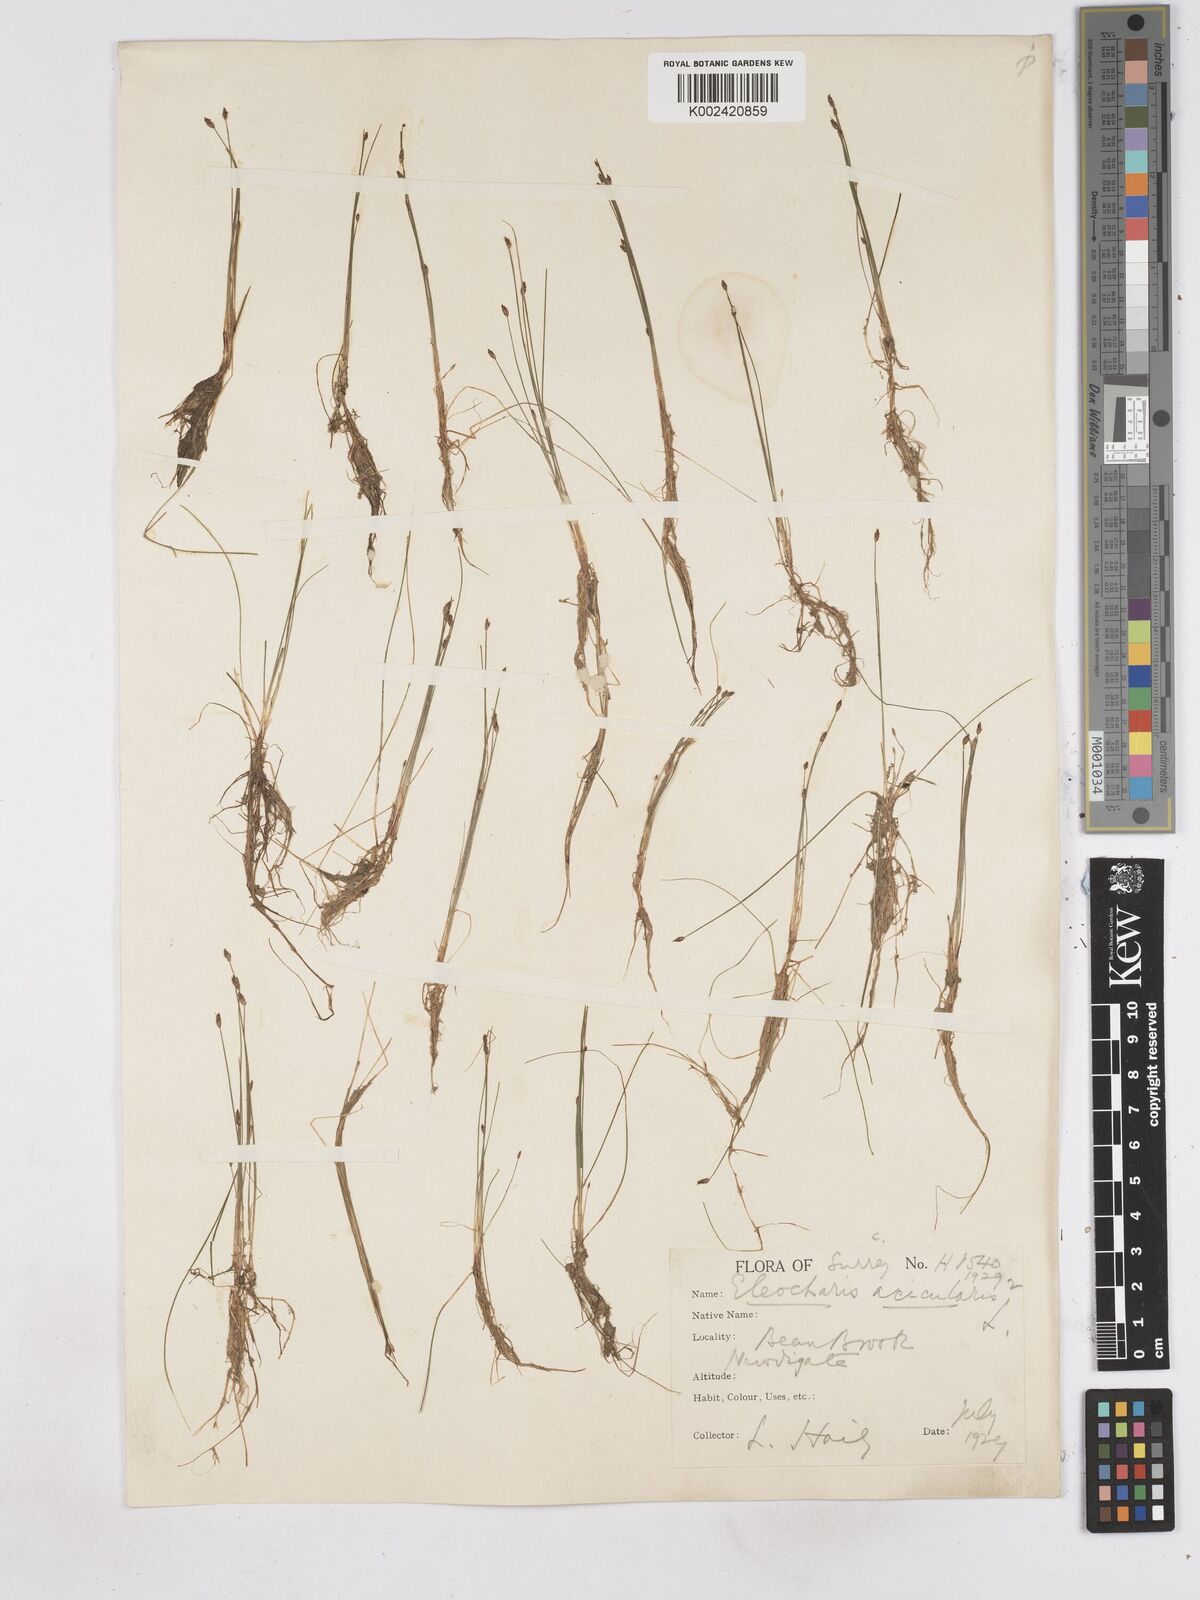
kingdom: Plantae
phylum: Tracheophyta
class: Liliopsida
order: Poales
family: Cyperaceae
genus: Eleocharis
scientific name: Eleocharis acicularis
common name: Needle spike-rush
